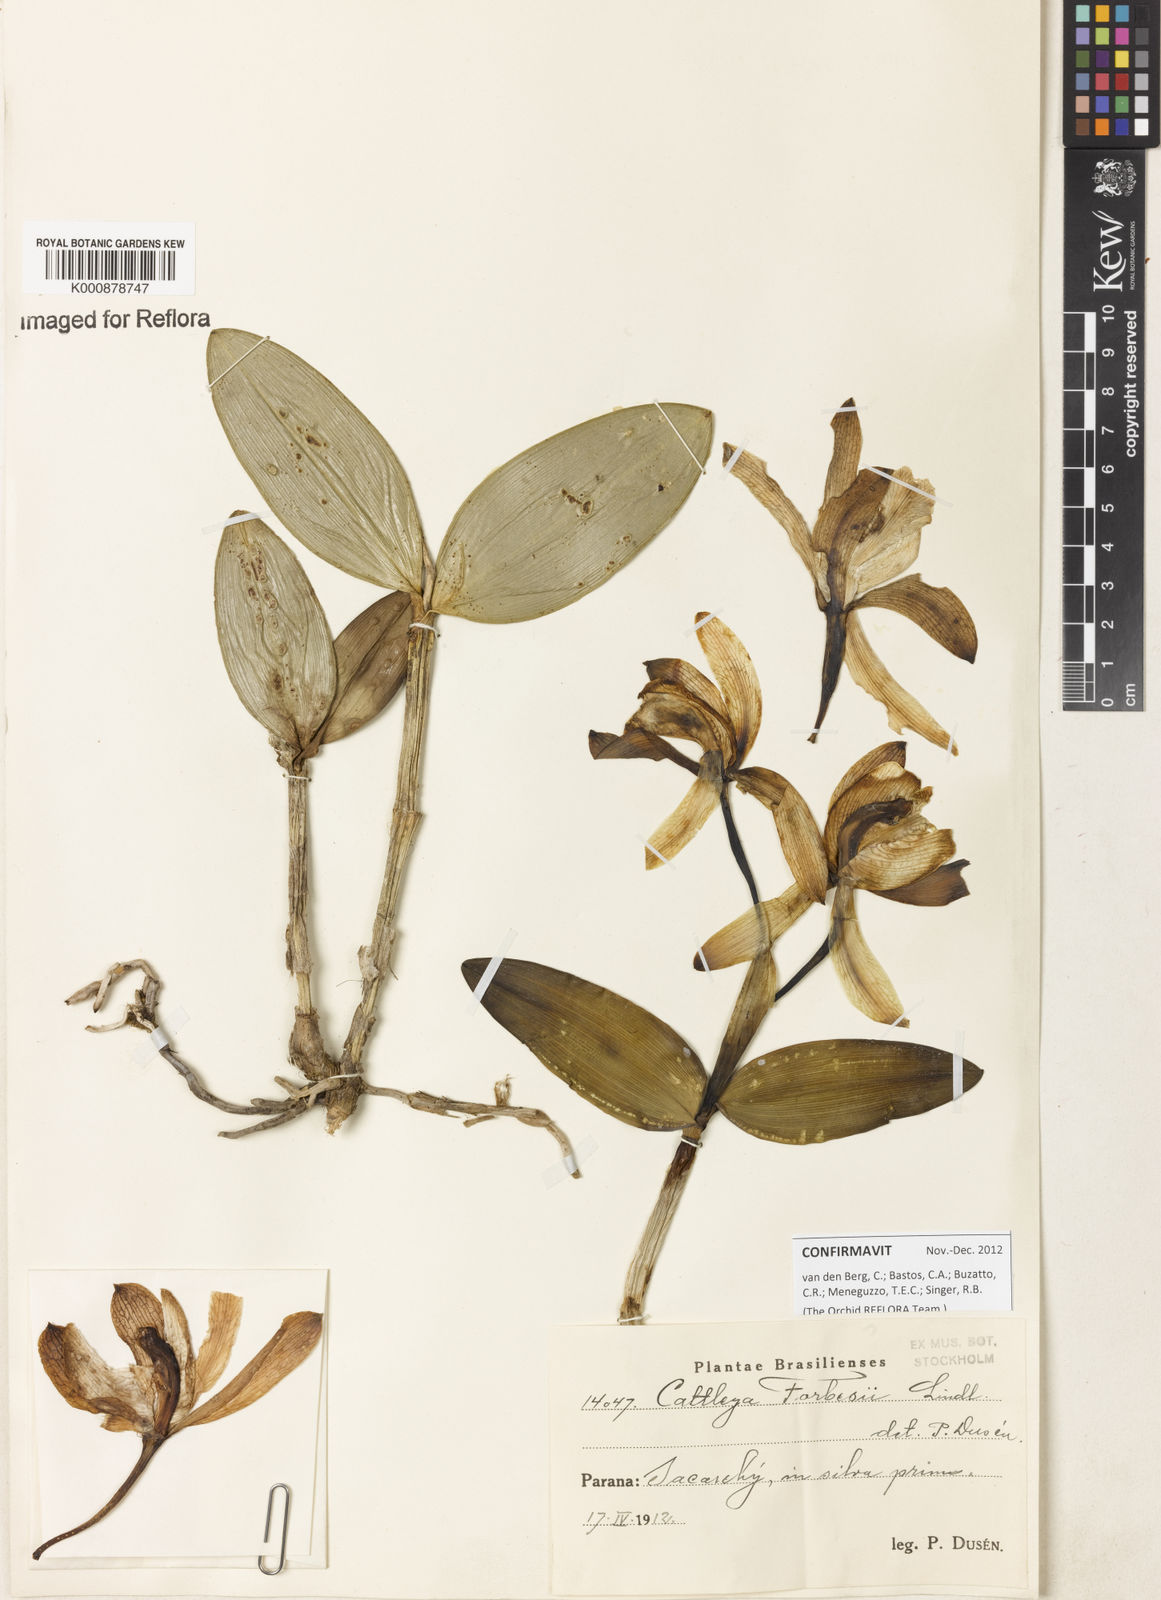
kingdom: Plantae
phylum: Tracheophyta
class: Liliopsida
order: Asparagales
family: Orchidaceae
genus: Cattleya
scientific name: Cattleya forbesii
